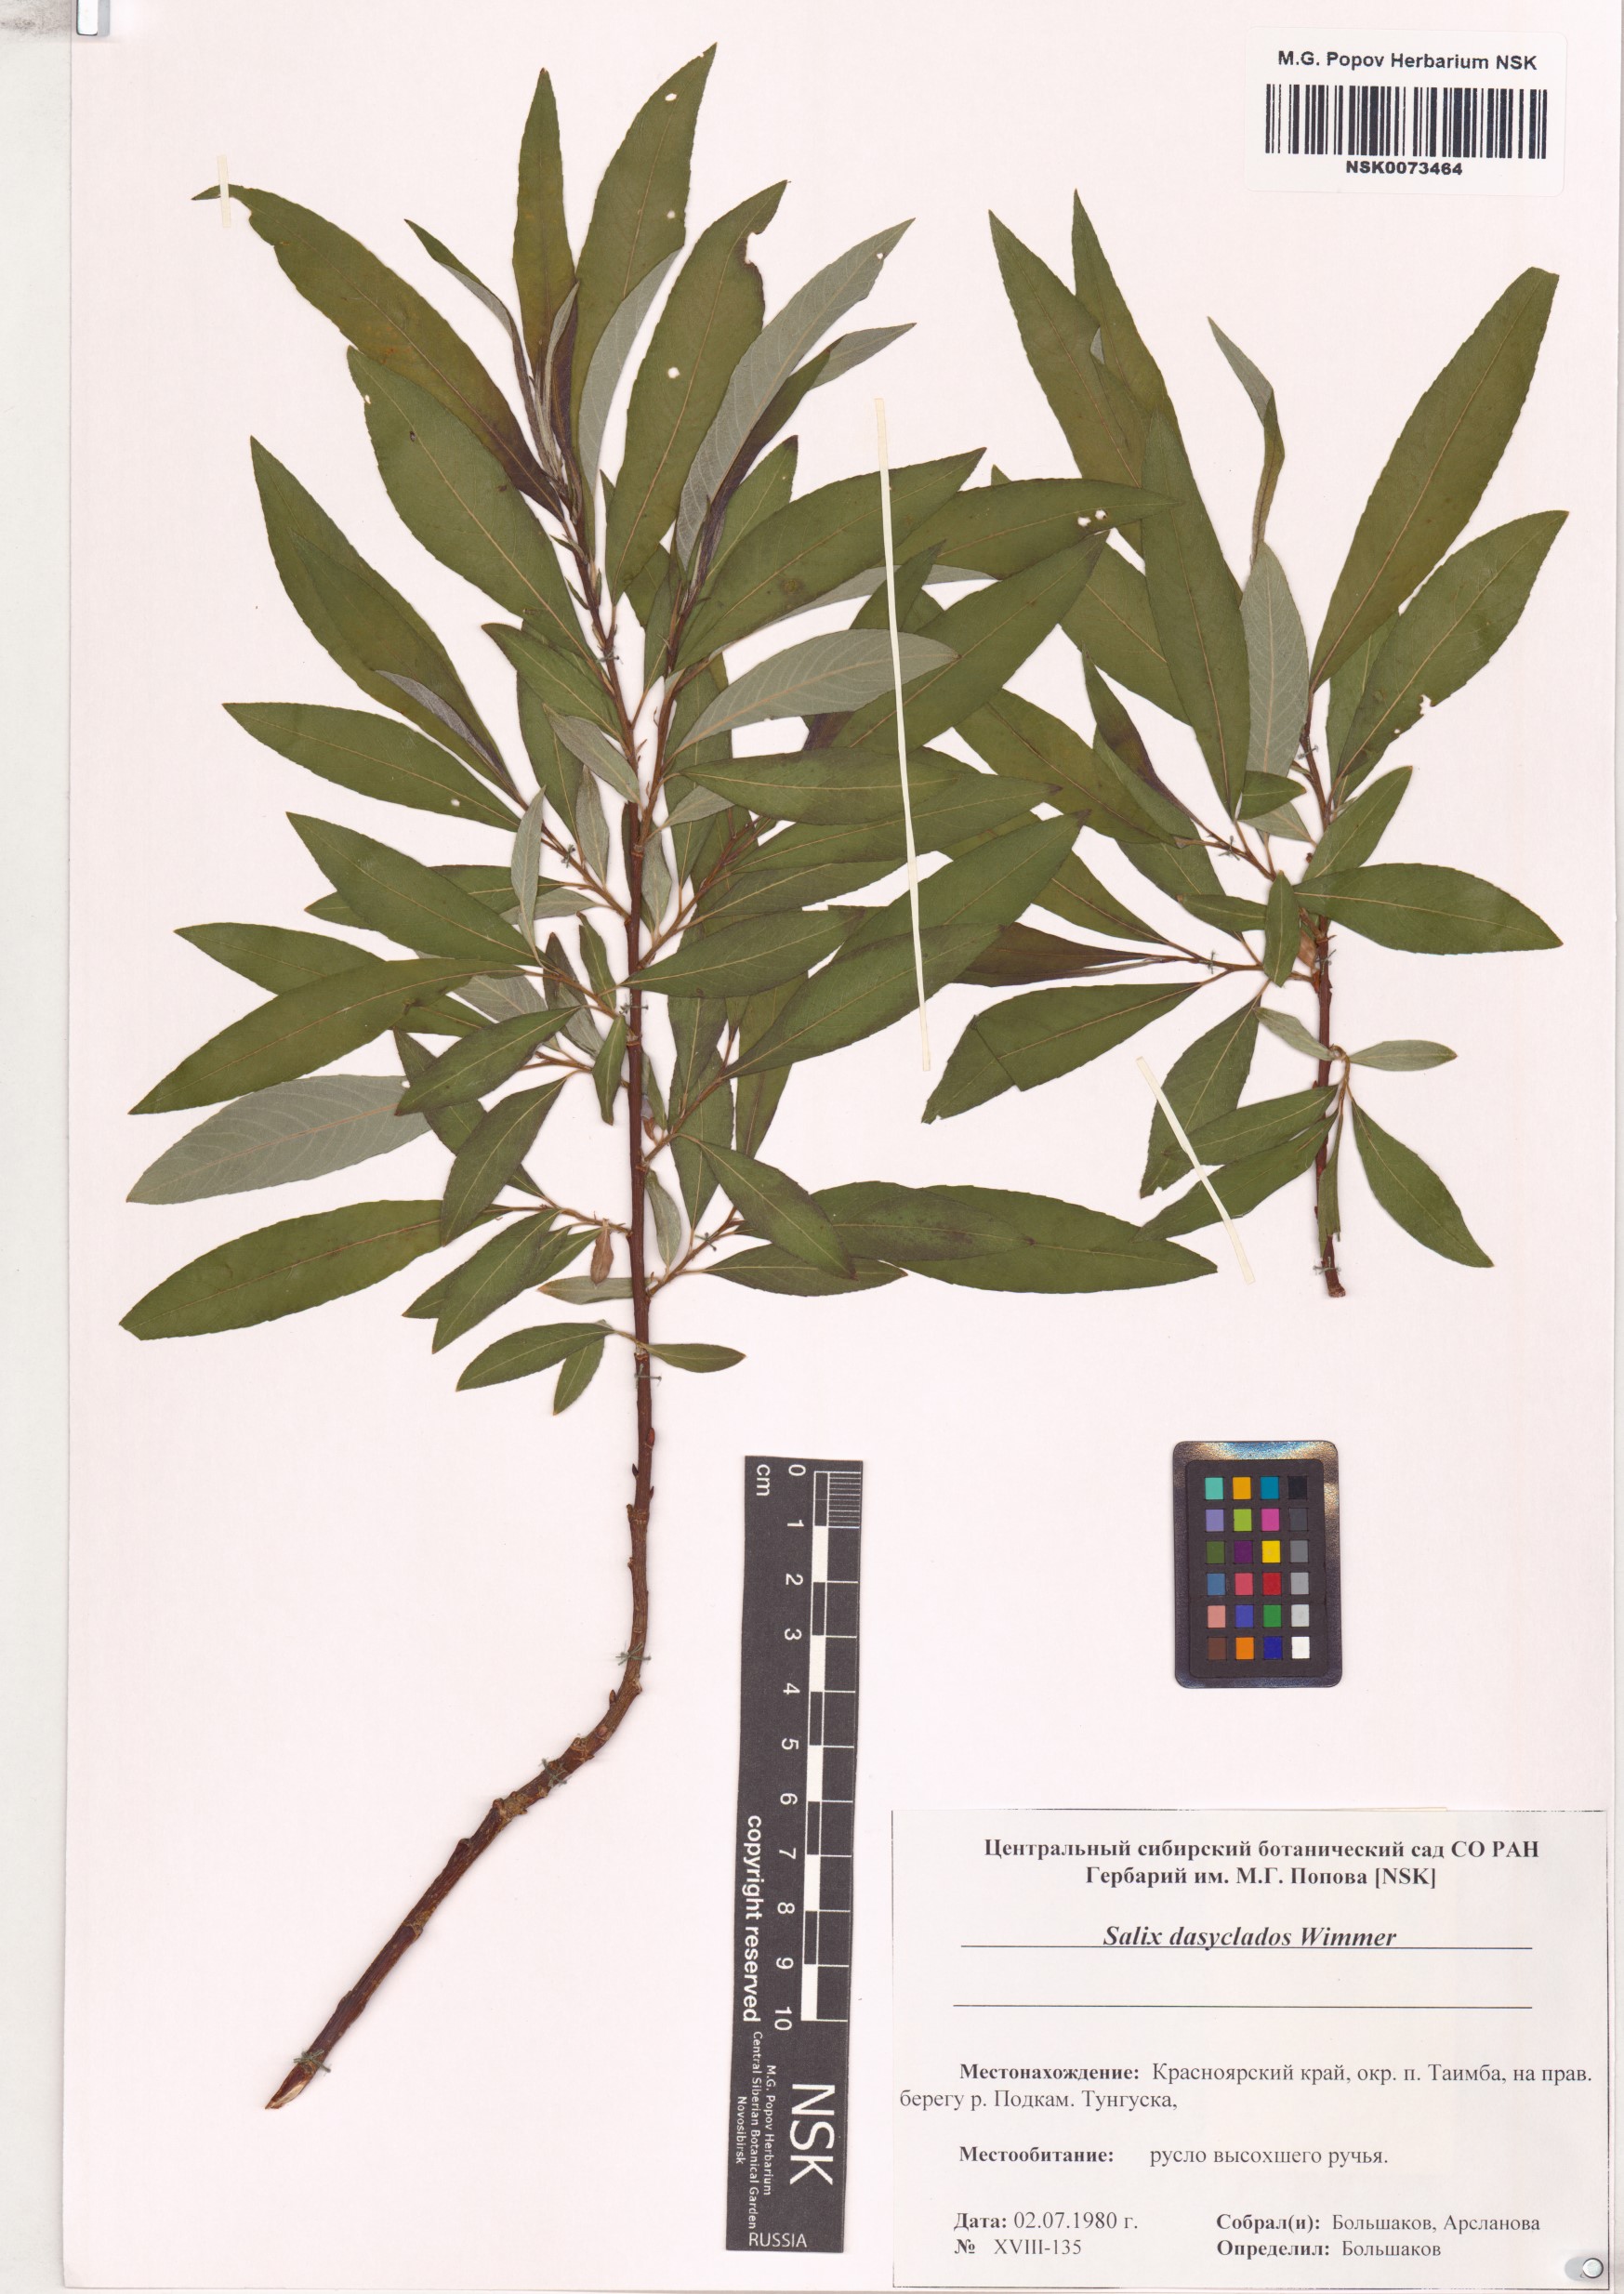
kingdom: Plantae
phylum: Tracheophyta
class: Magnoliopsida
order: Malpighiales
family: Salicaceae
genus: Salix
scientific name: Salix gmelinii
